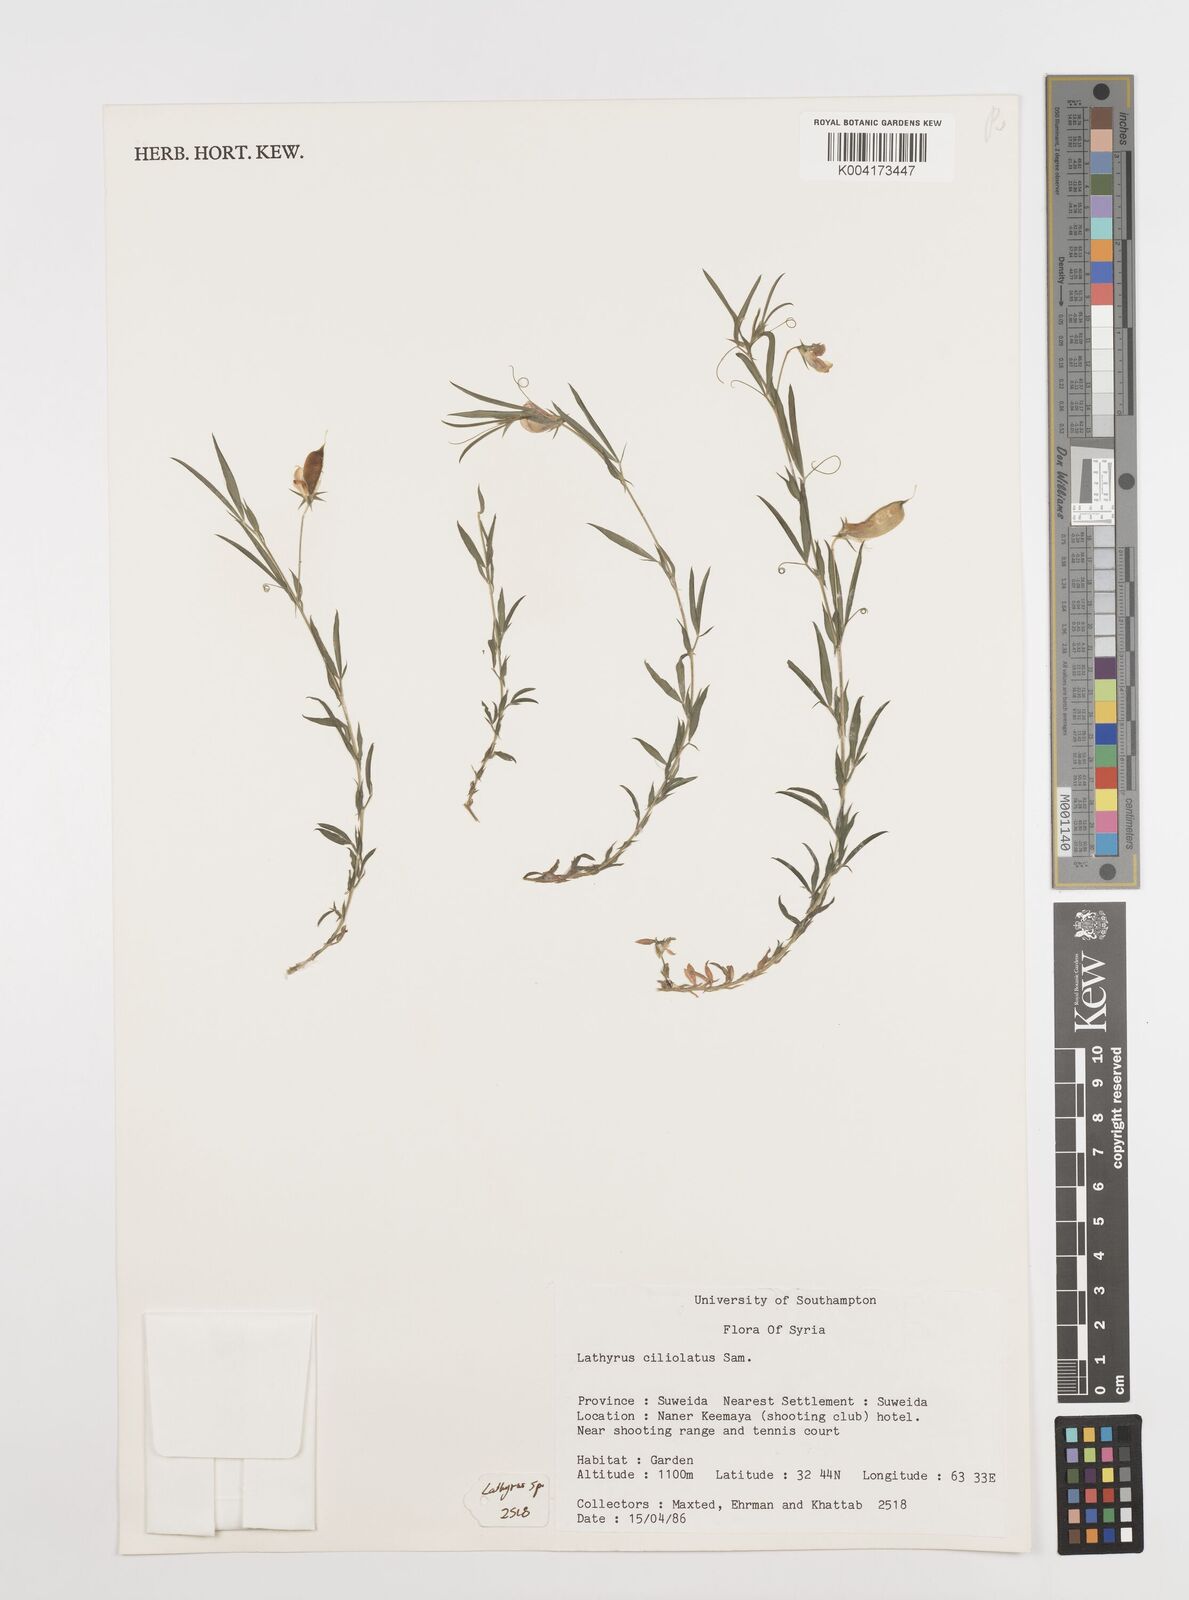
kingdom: Plantae
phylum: Tracheophyta
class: Magnoliopsida
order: Fabales
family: Fabaceae
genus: Lathyrus
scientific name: Lathyrus ciliolatus
